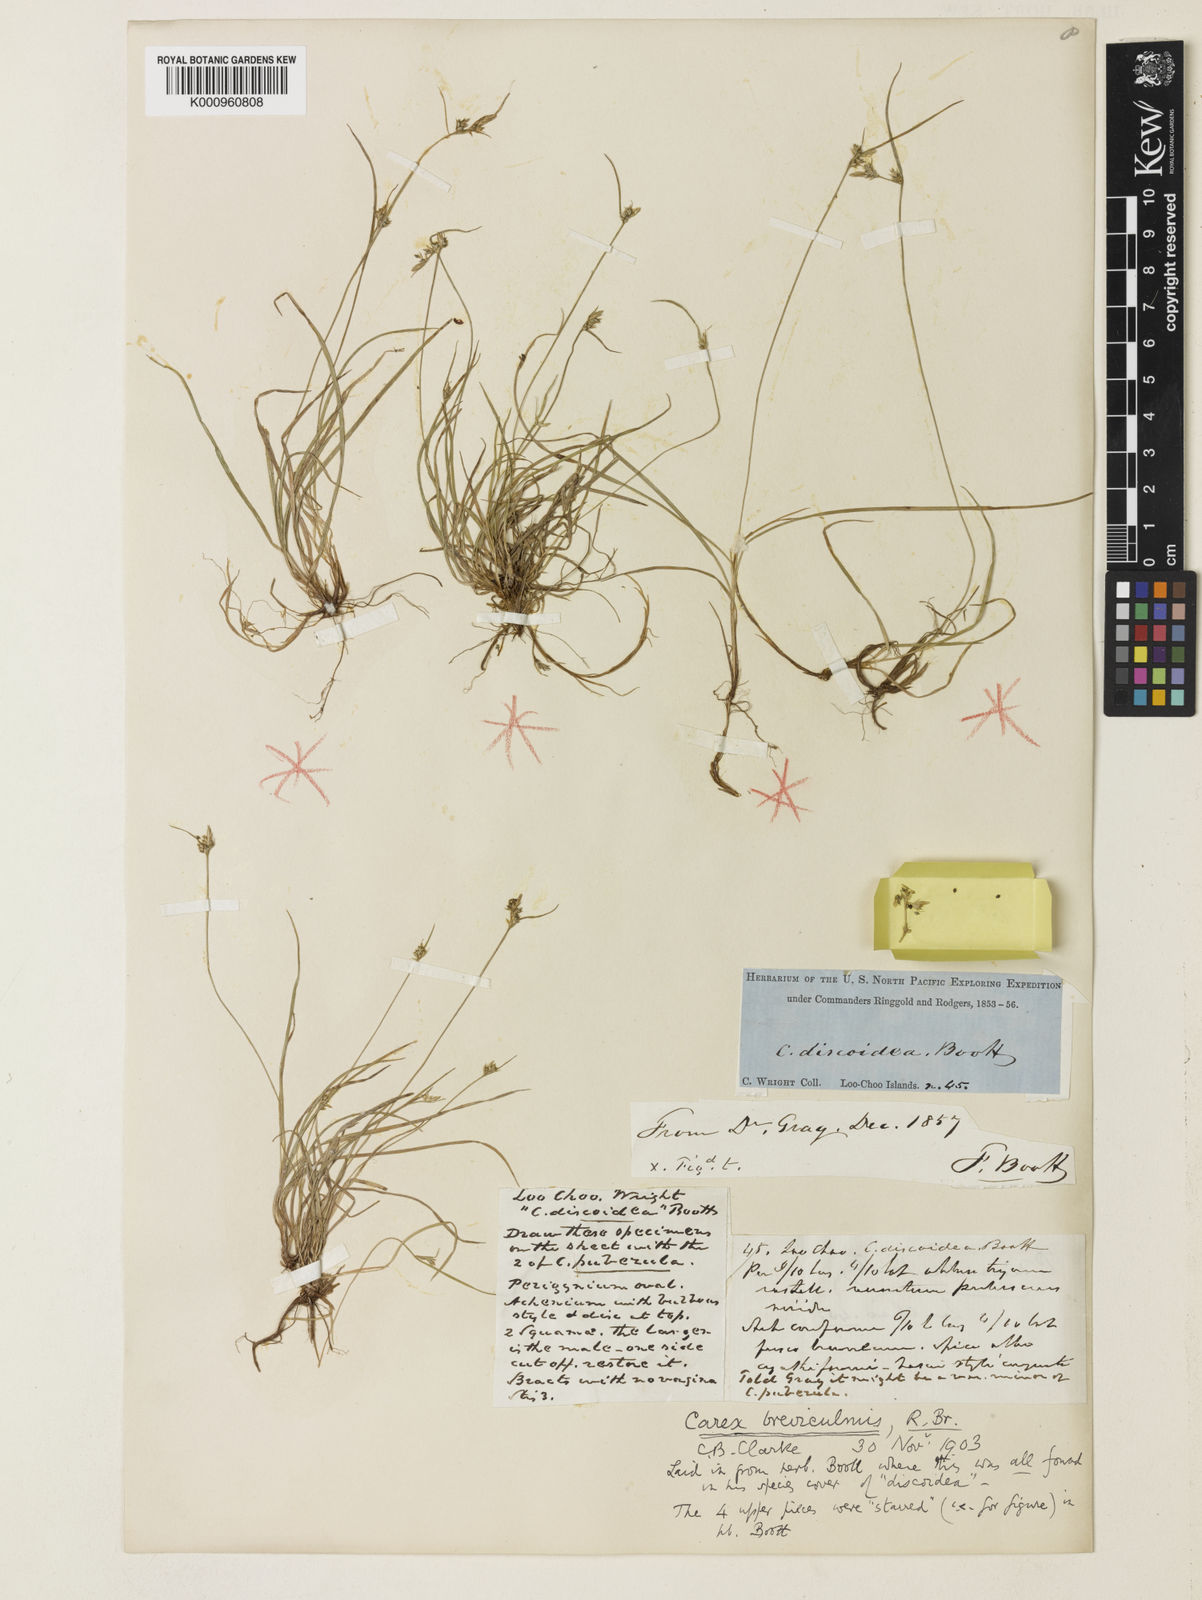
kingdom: Plantae
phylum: Tracheophyta
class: Liliopsida
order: Poales
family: Cyperaceae
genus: Carex
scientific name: Carex breviculmis
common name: Asian shortstem sedge
